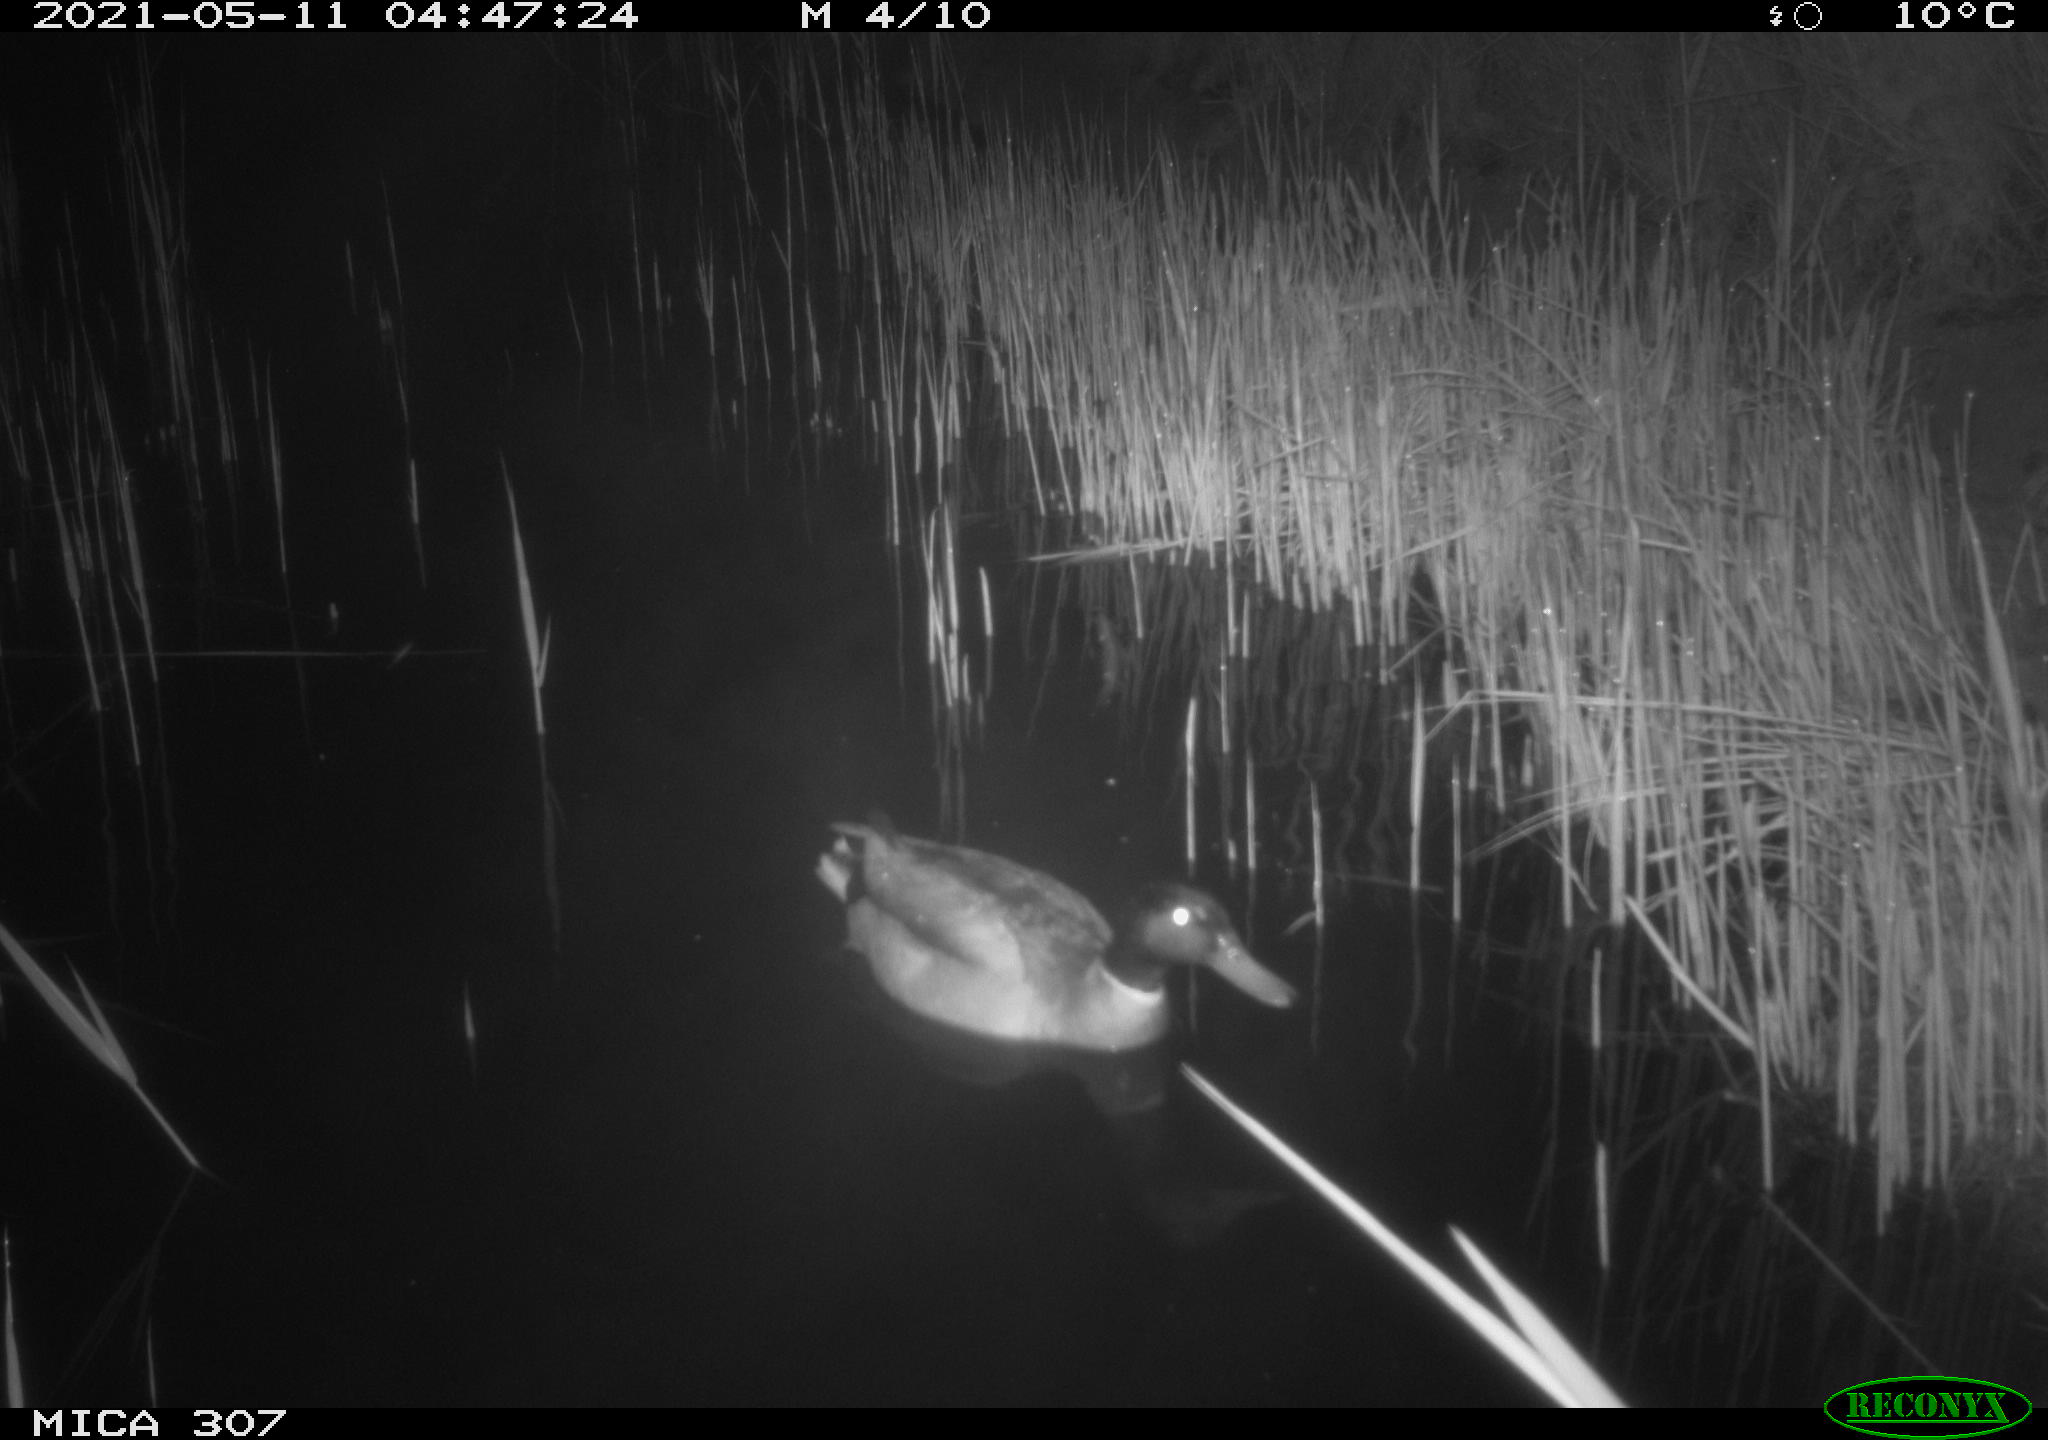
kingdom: Animalia
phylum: Chordata
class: Aves
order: Anseriformes
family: Anatidae
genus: Anas
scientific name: Anas platyrhynchos
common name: Mallard
